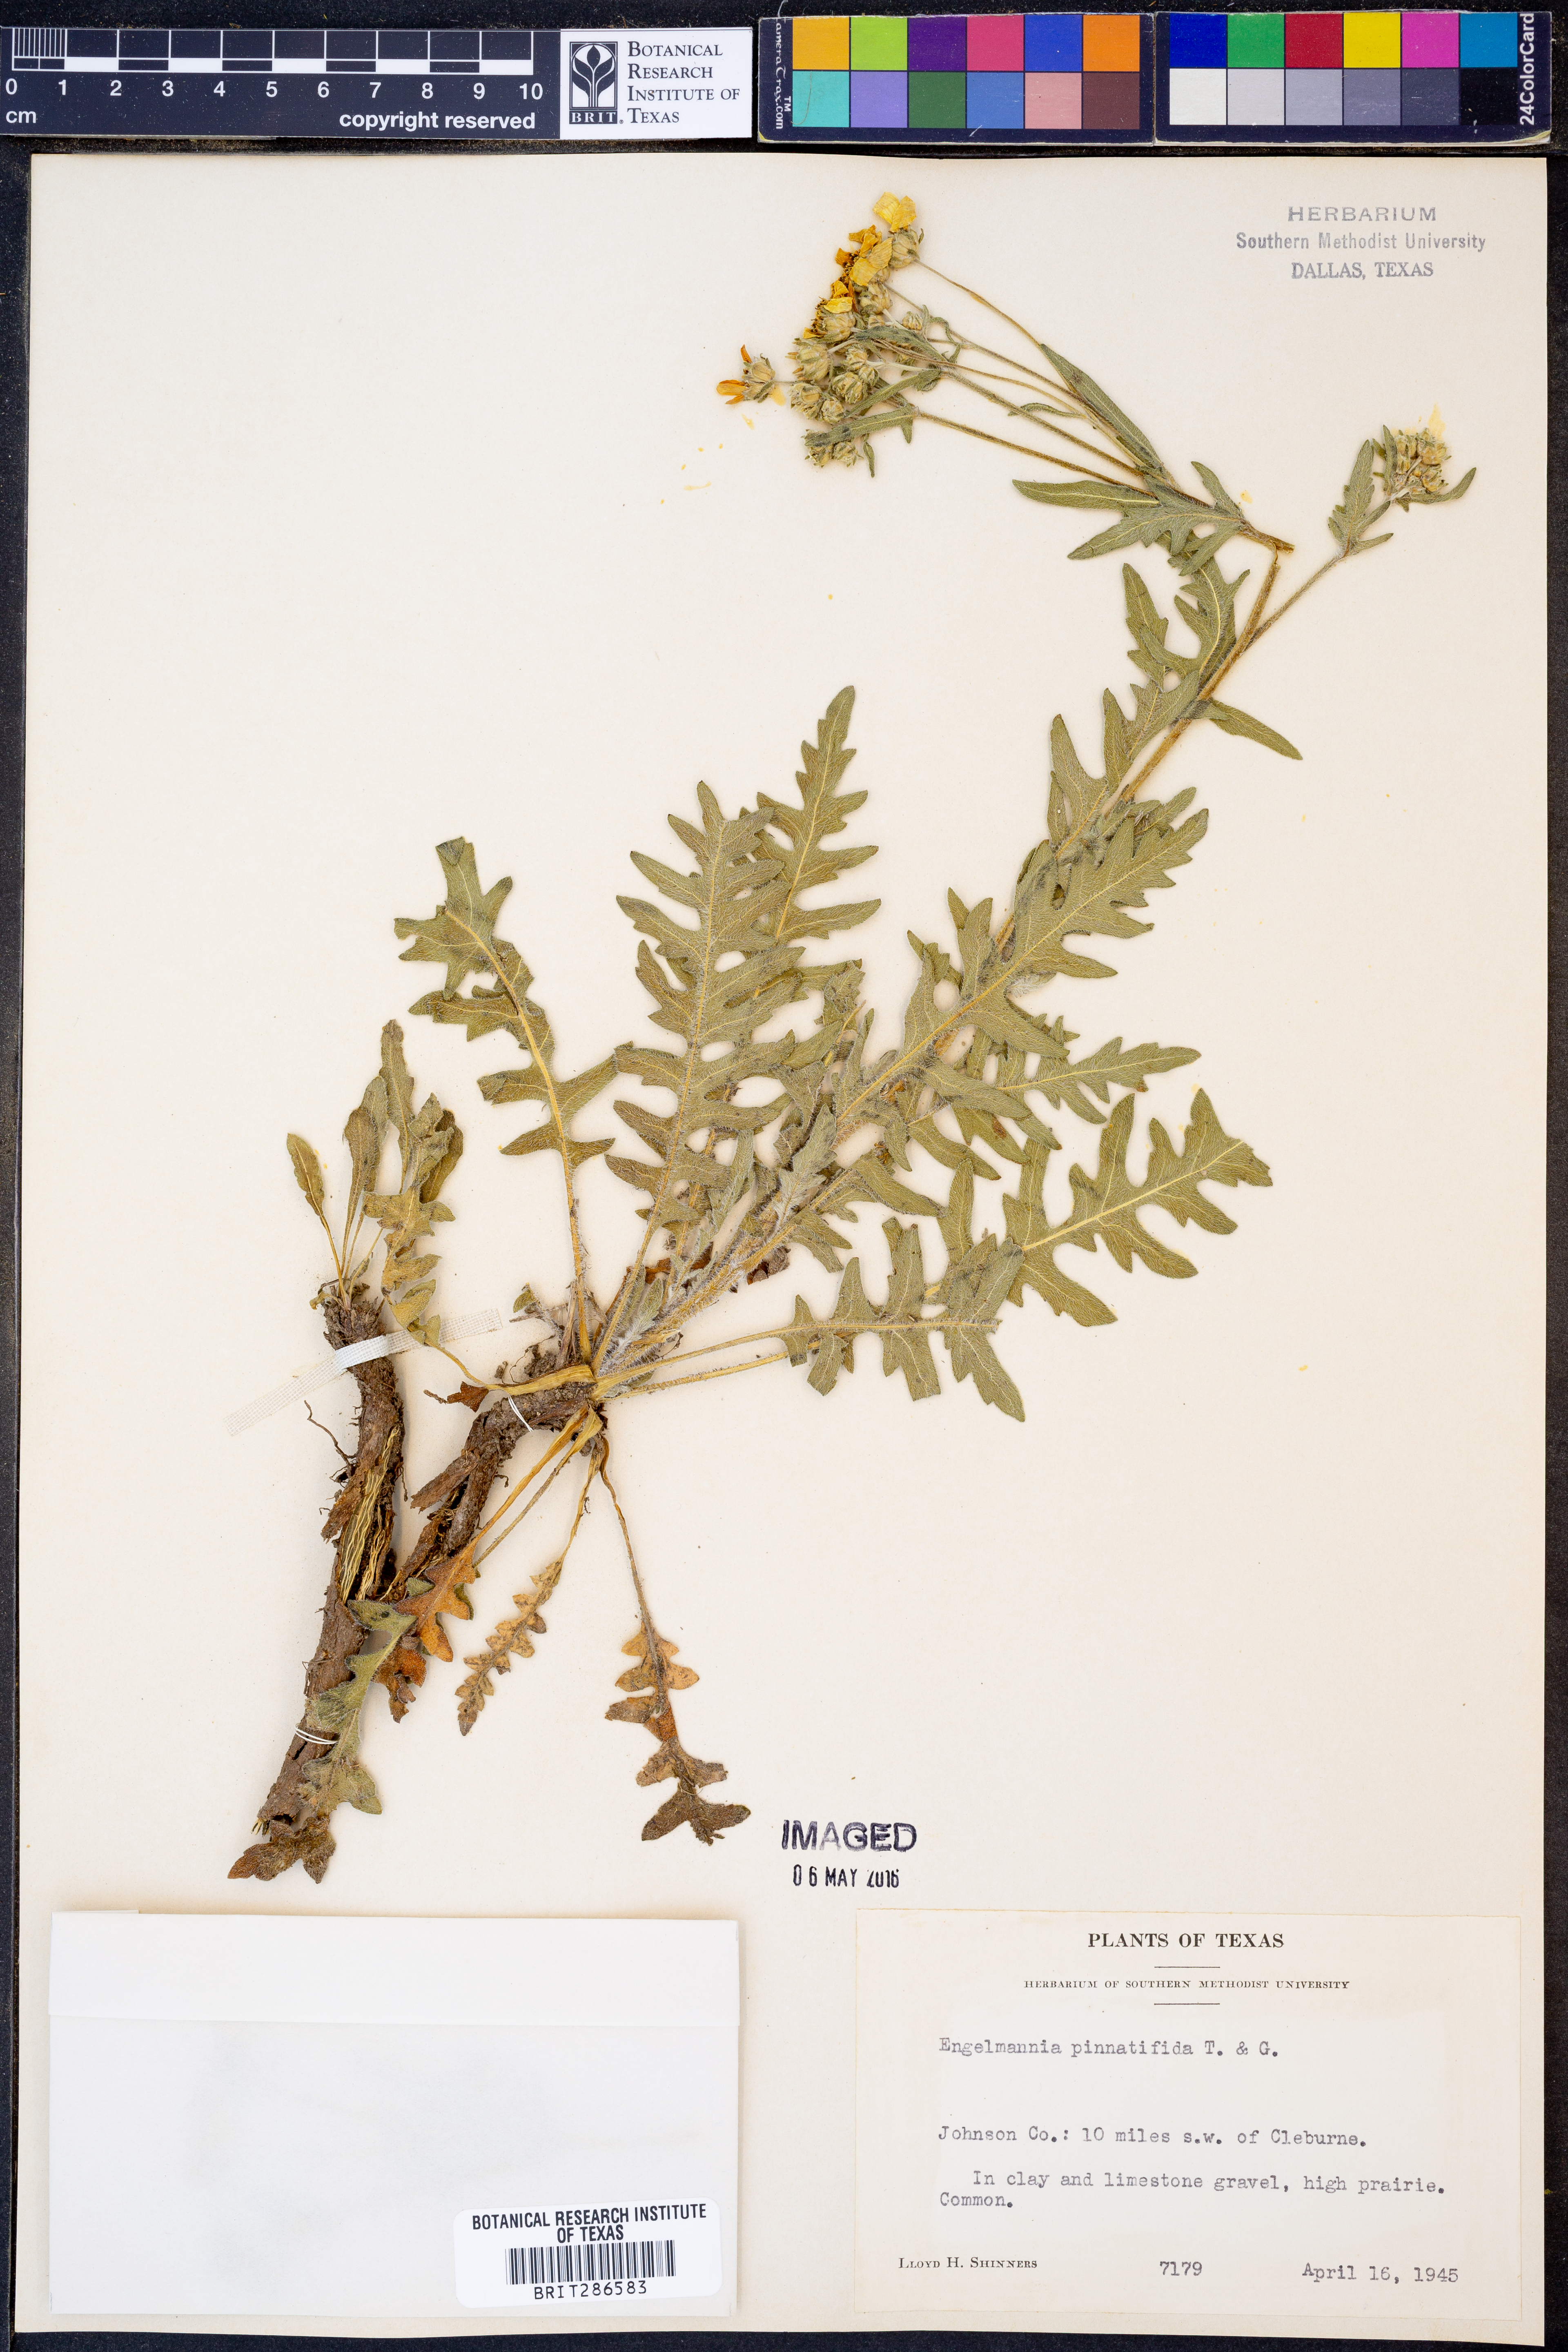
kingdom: Plantae
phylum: Tracheophyta
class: Magnoliopsida
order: Asterales
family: Asteraceae
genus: Engelmannia
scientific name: Engelmannia peristenia
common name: Engelmann's daisy
